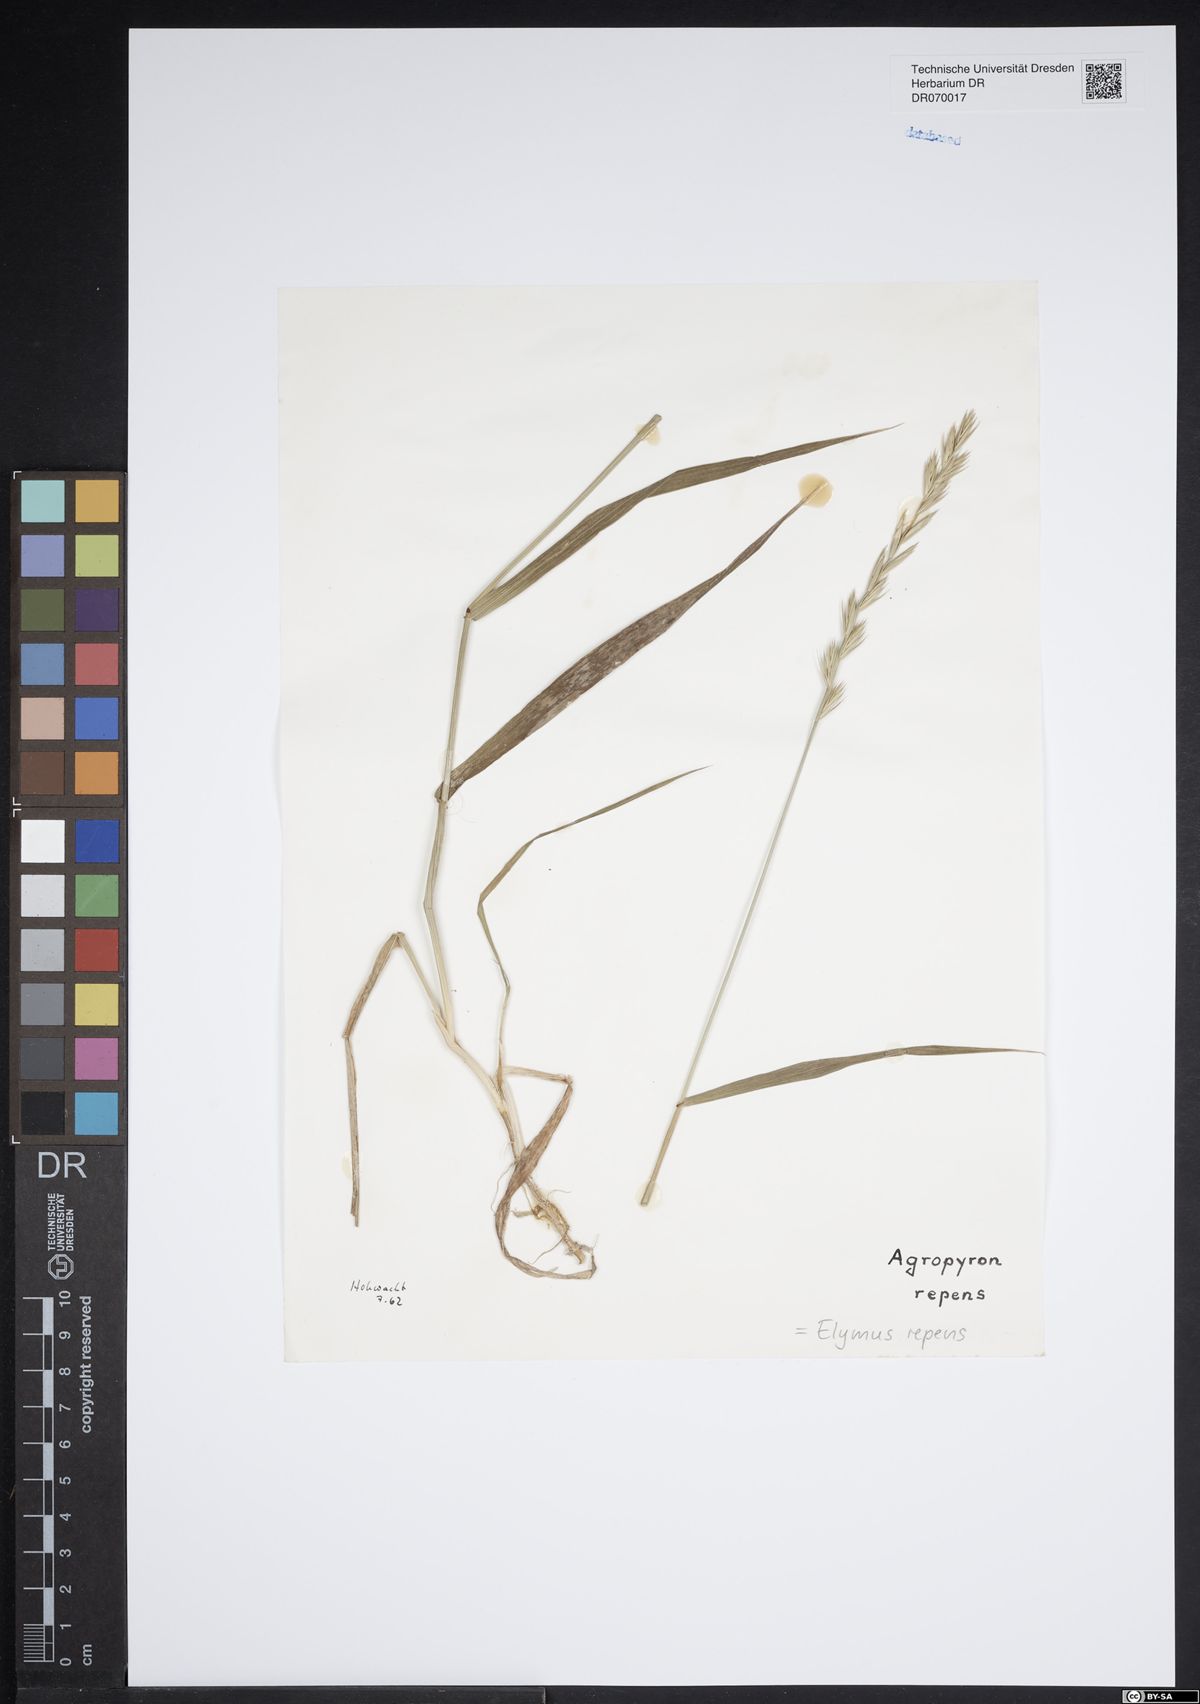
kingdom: Plantae
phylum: Tracheophyta
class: Liliopsida
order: Poales
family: Poaceae
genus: Elymus
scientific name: Elymus repens
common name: Quackgrass
